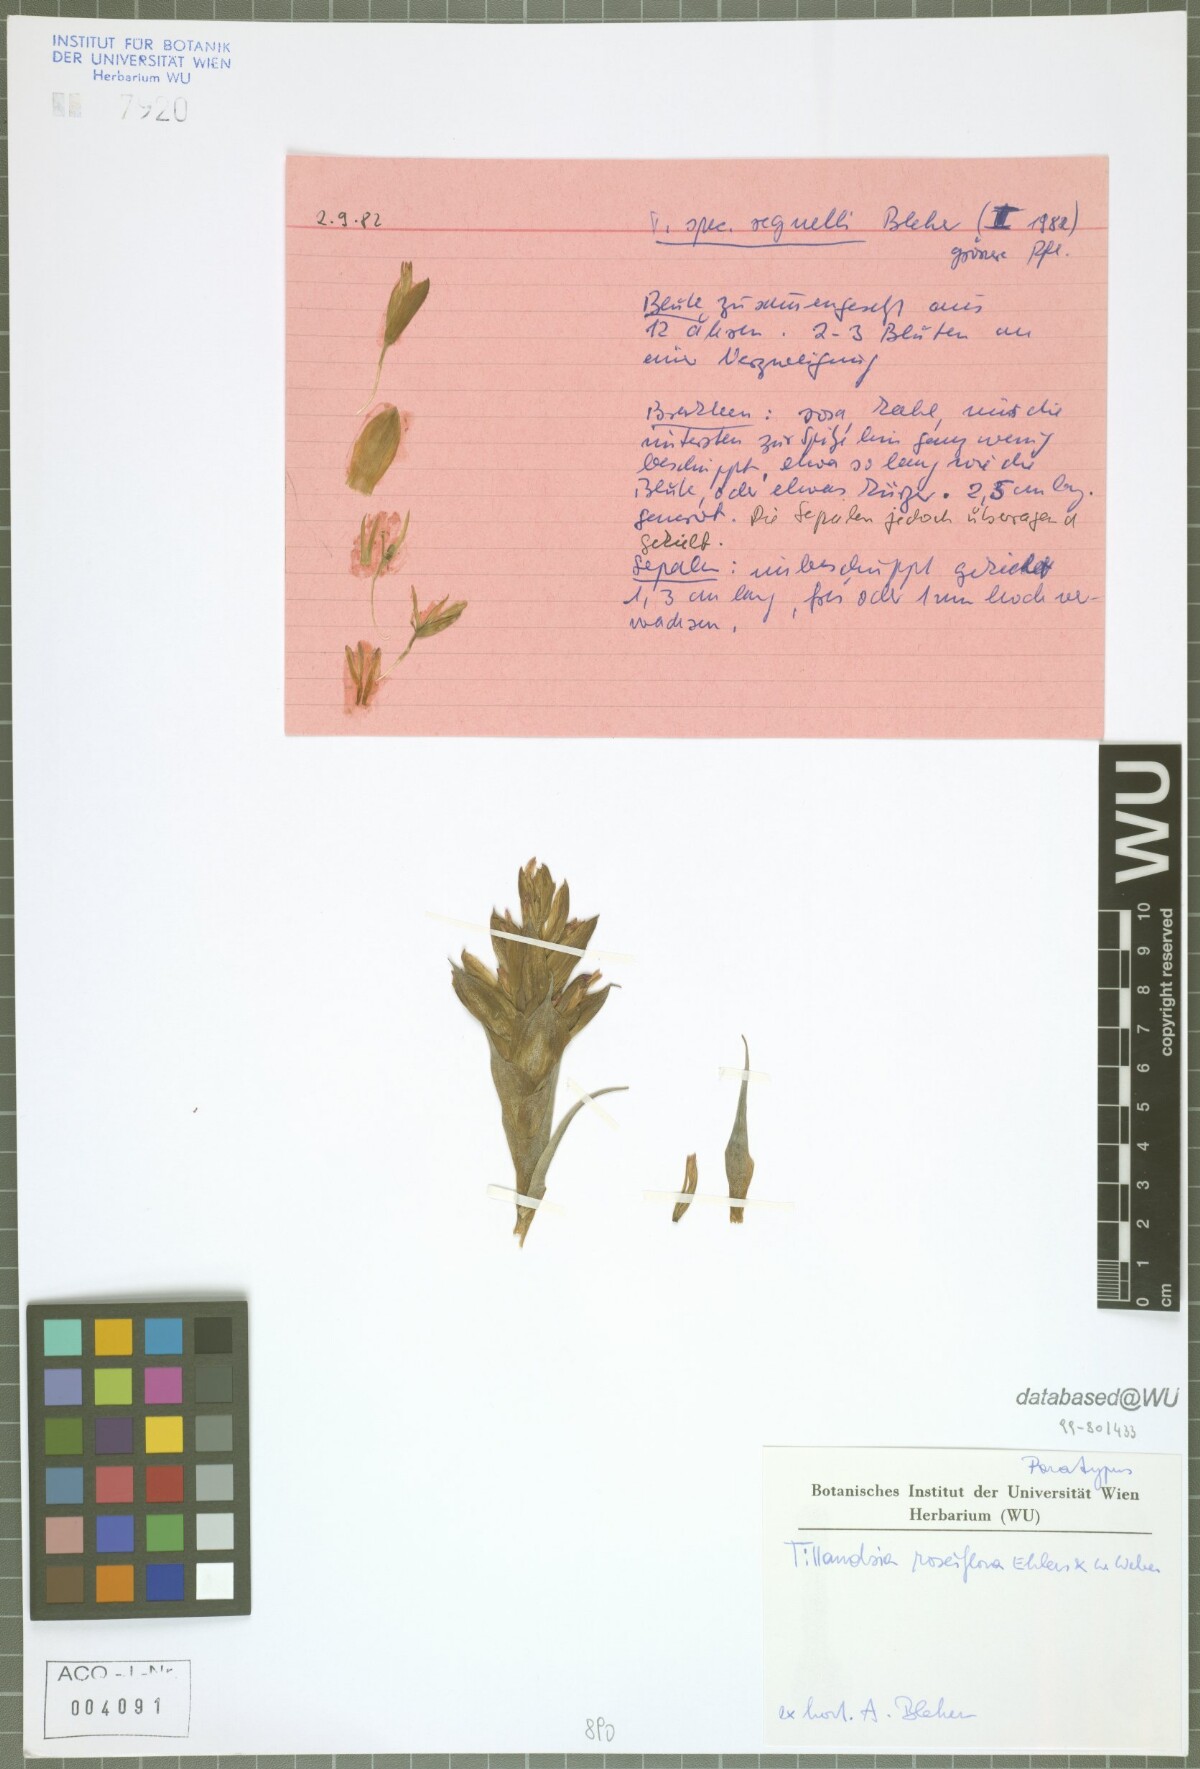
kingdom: Plantae
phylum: Tracheophyta
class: Liliopsida
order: Poales
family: Bromeliaceae
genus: Tillandsia
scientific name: Tillandsia roseiflora
